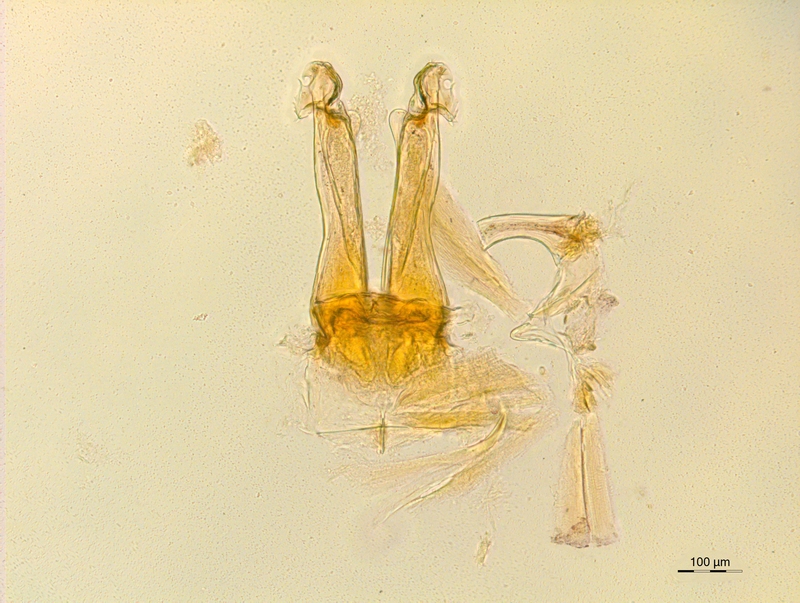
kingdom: Animalia
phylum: Arthropoda
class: Diplopoda
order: Chordeumatida
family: Craspedosomatidae
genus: Rothenbuehleria
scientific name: Rothenbuehleria tirolense
